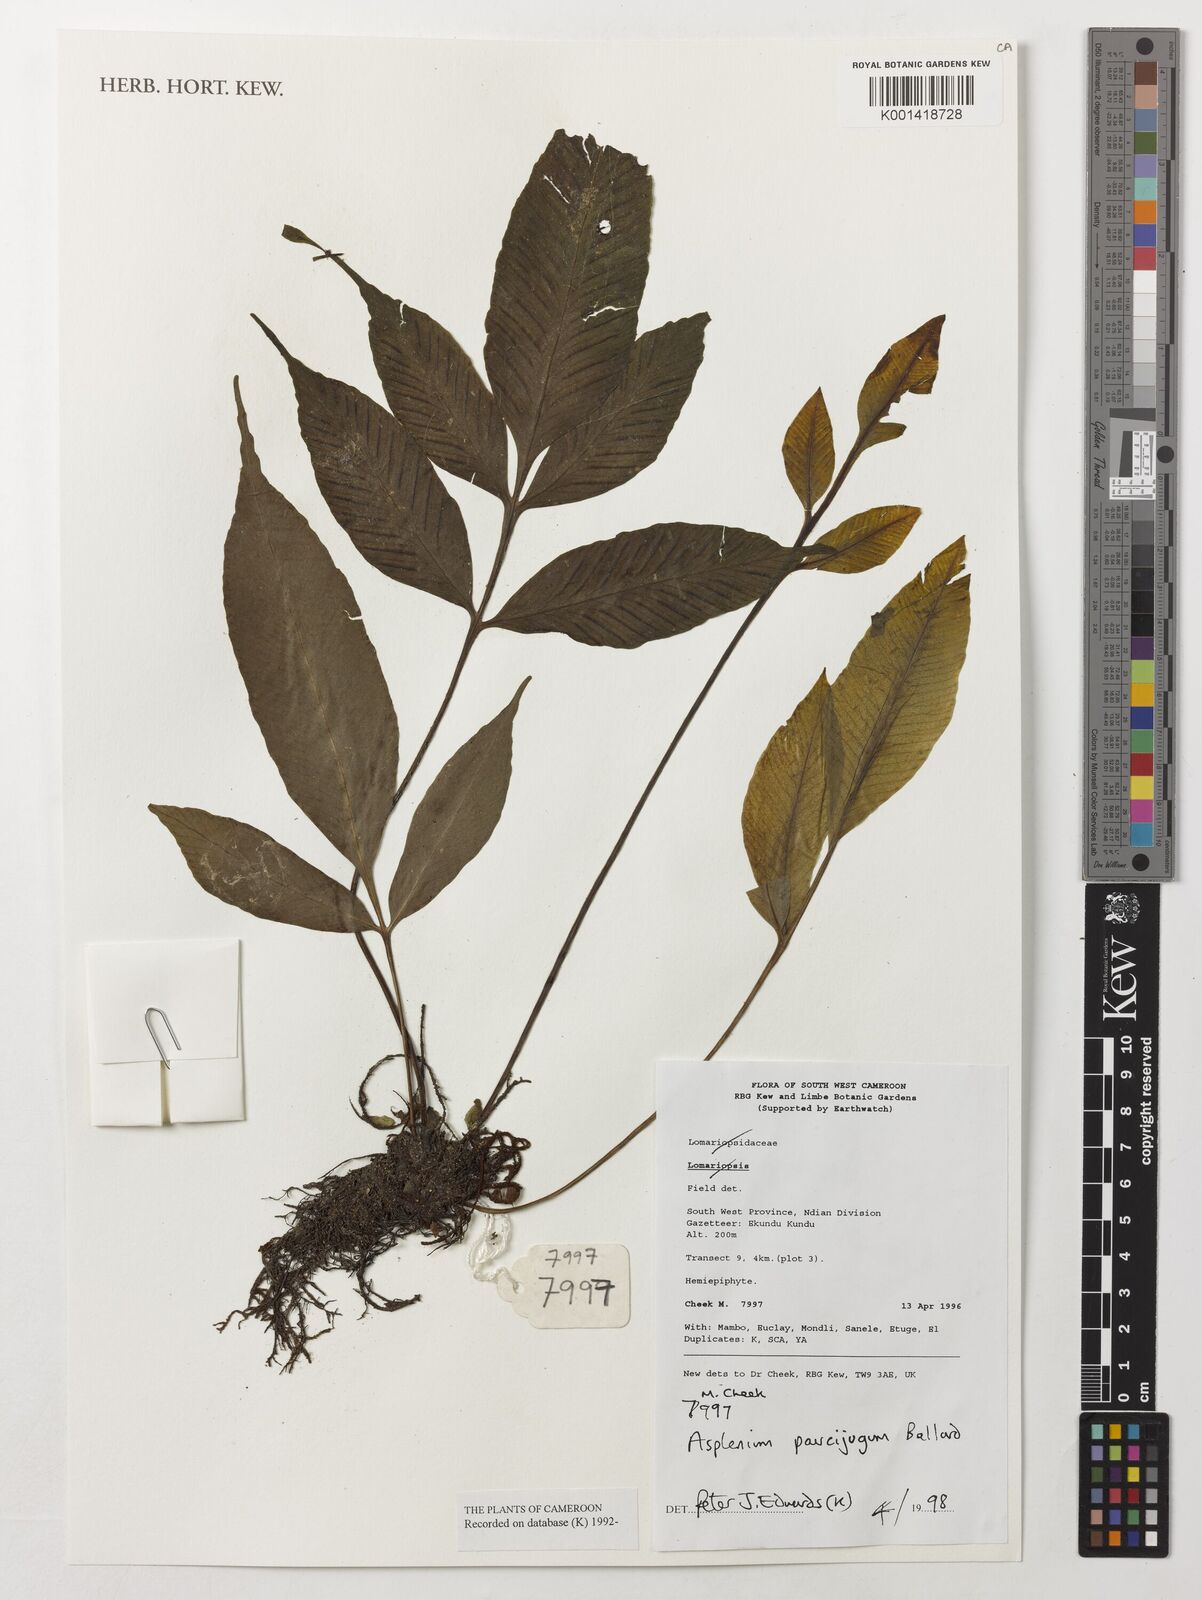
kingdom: Plantae
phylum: Tracheophyta
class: Polypodiopsida
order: Polypodiales
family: Aspleniaceae
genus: Asplenium
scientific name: Asplenium variabile
